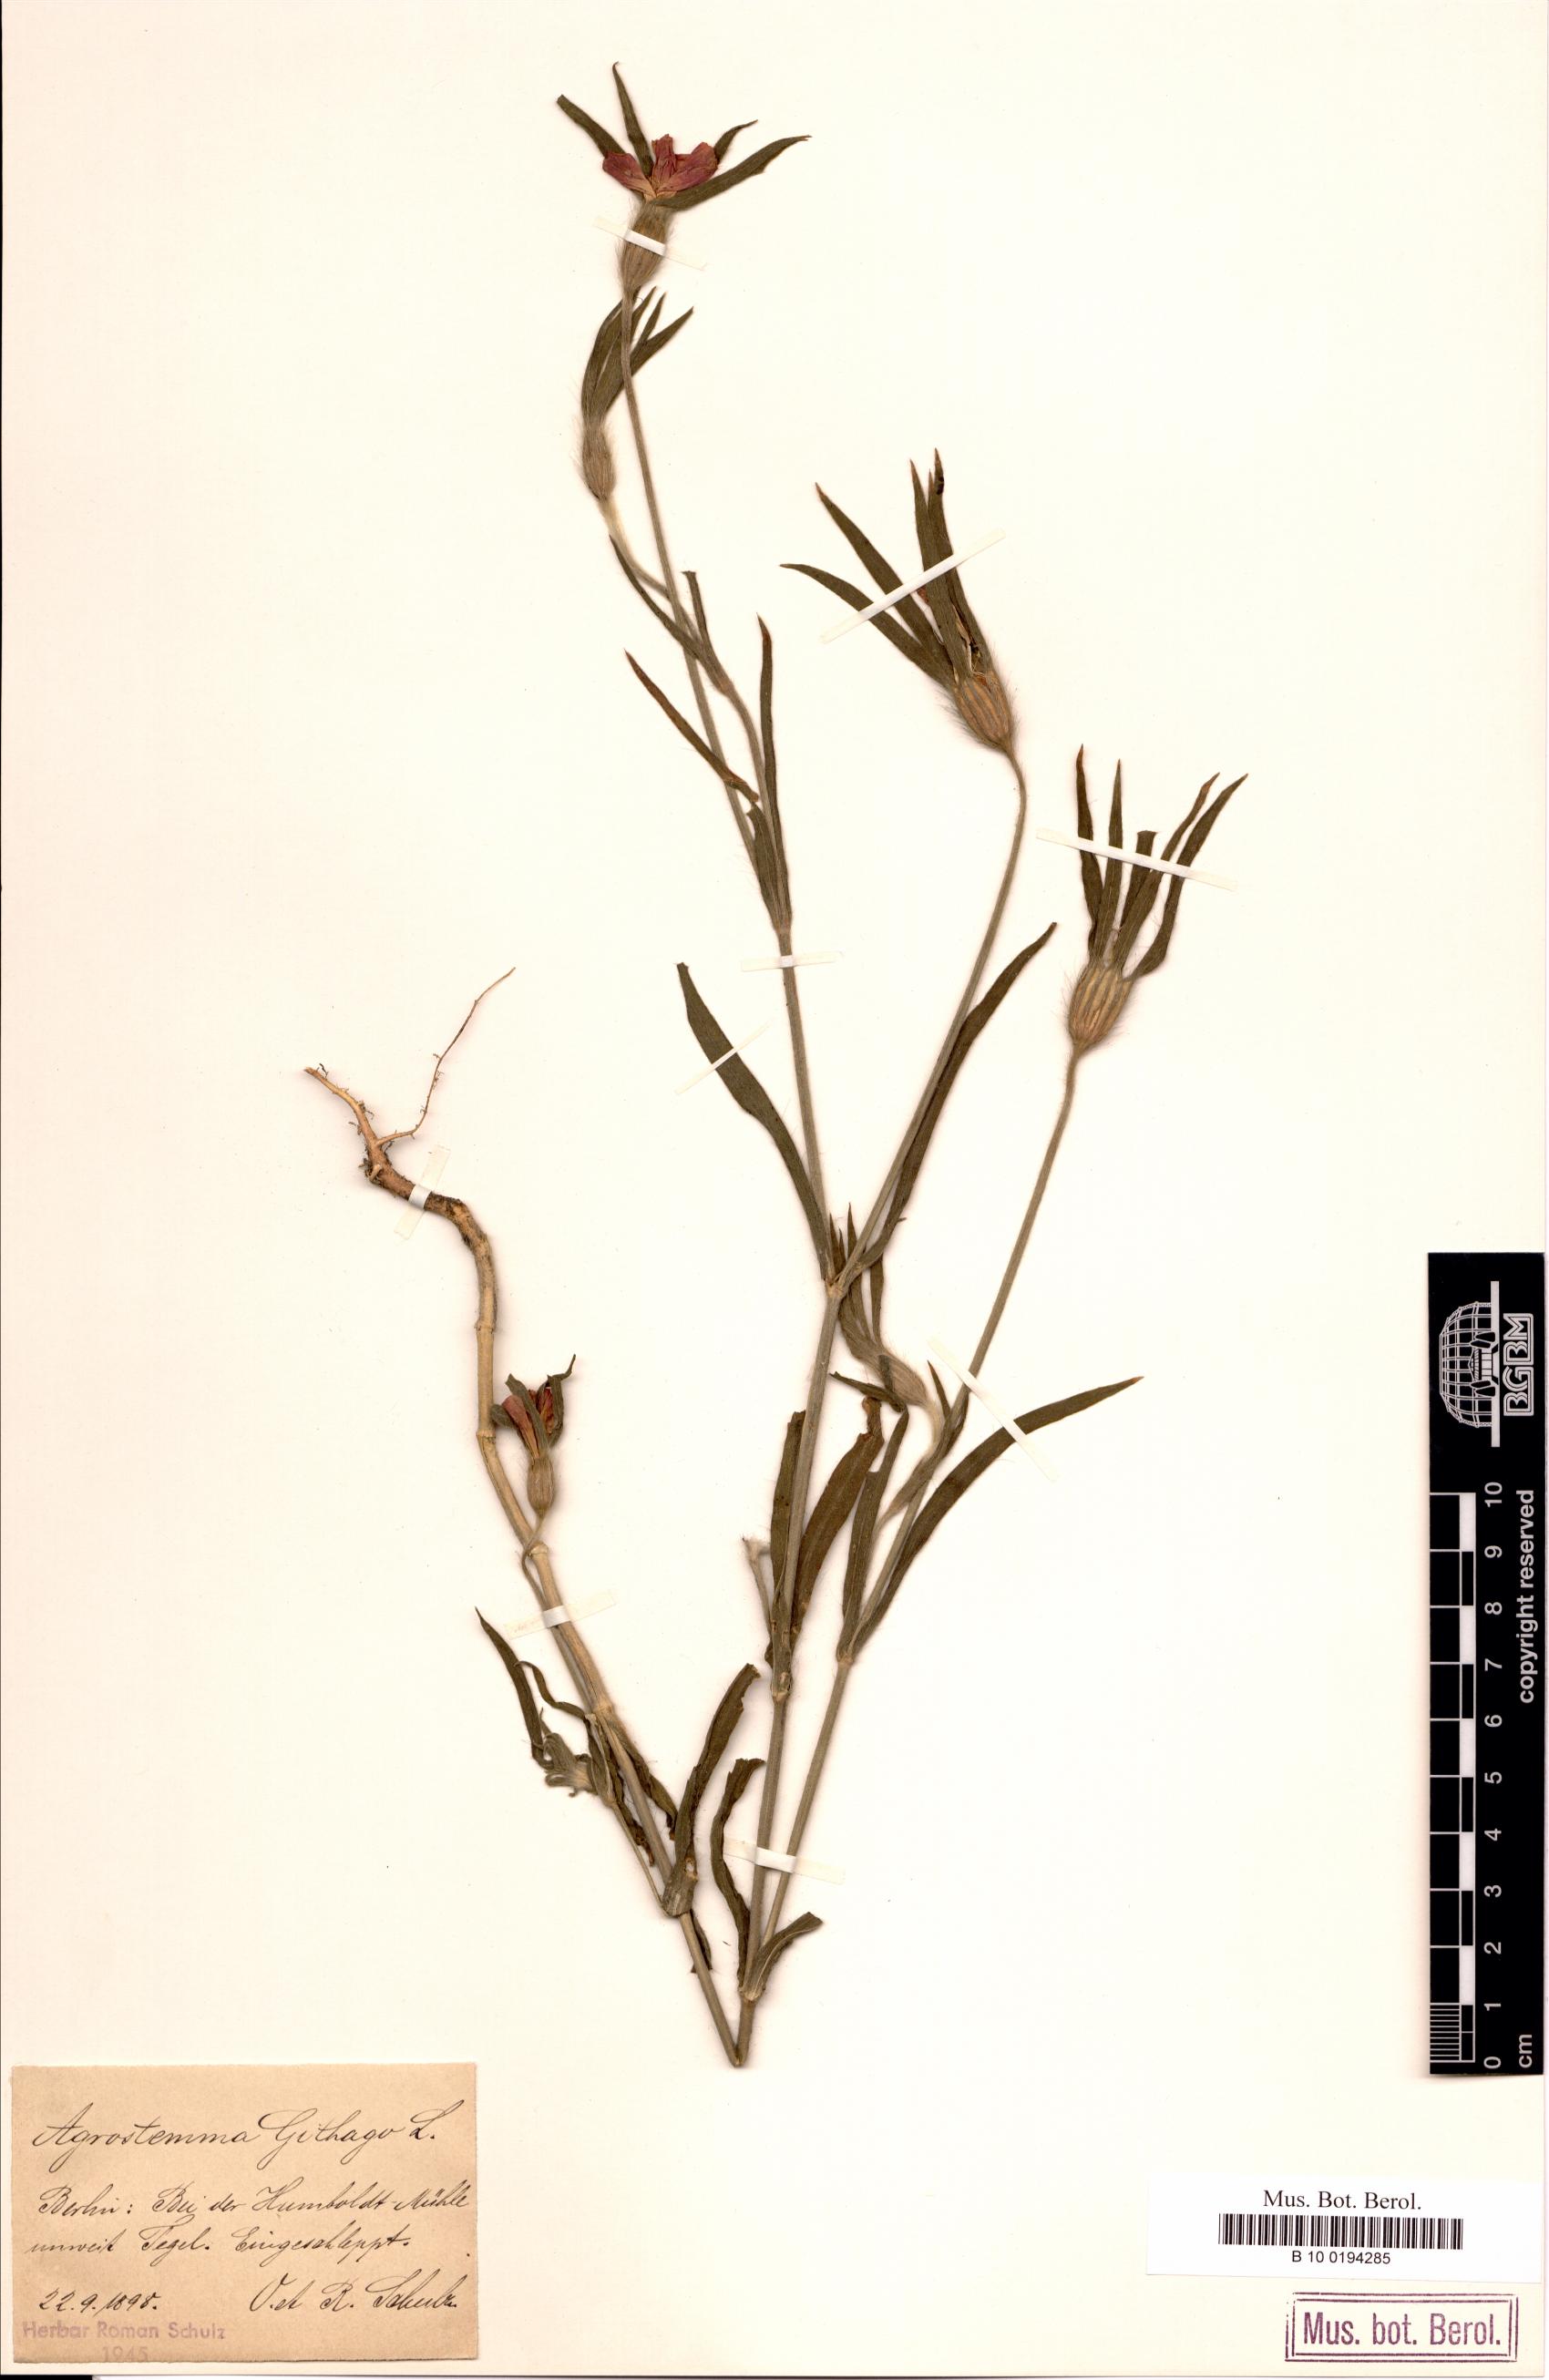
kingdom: Plantae
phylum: Tracheophyta
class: Magnoliopsida
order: Caryophyllales
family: Caryophyllaceae
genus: Agrostemma
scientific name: Agrostemma githago
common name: Common corncockle
